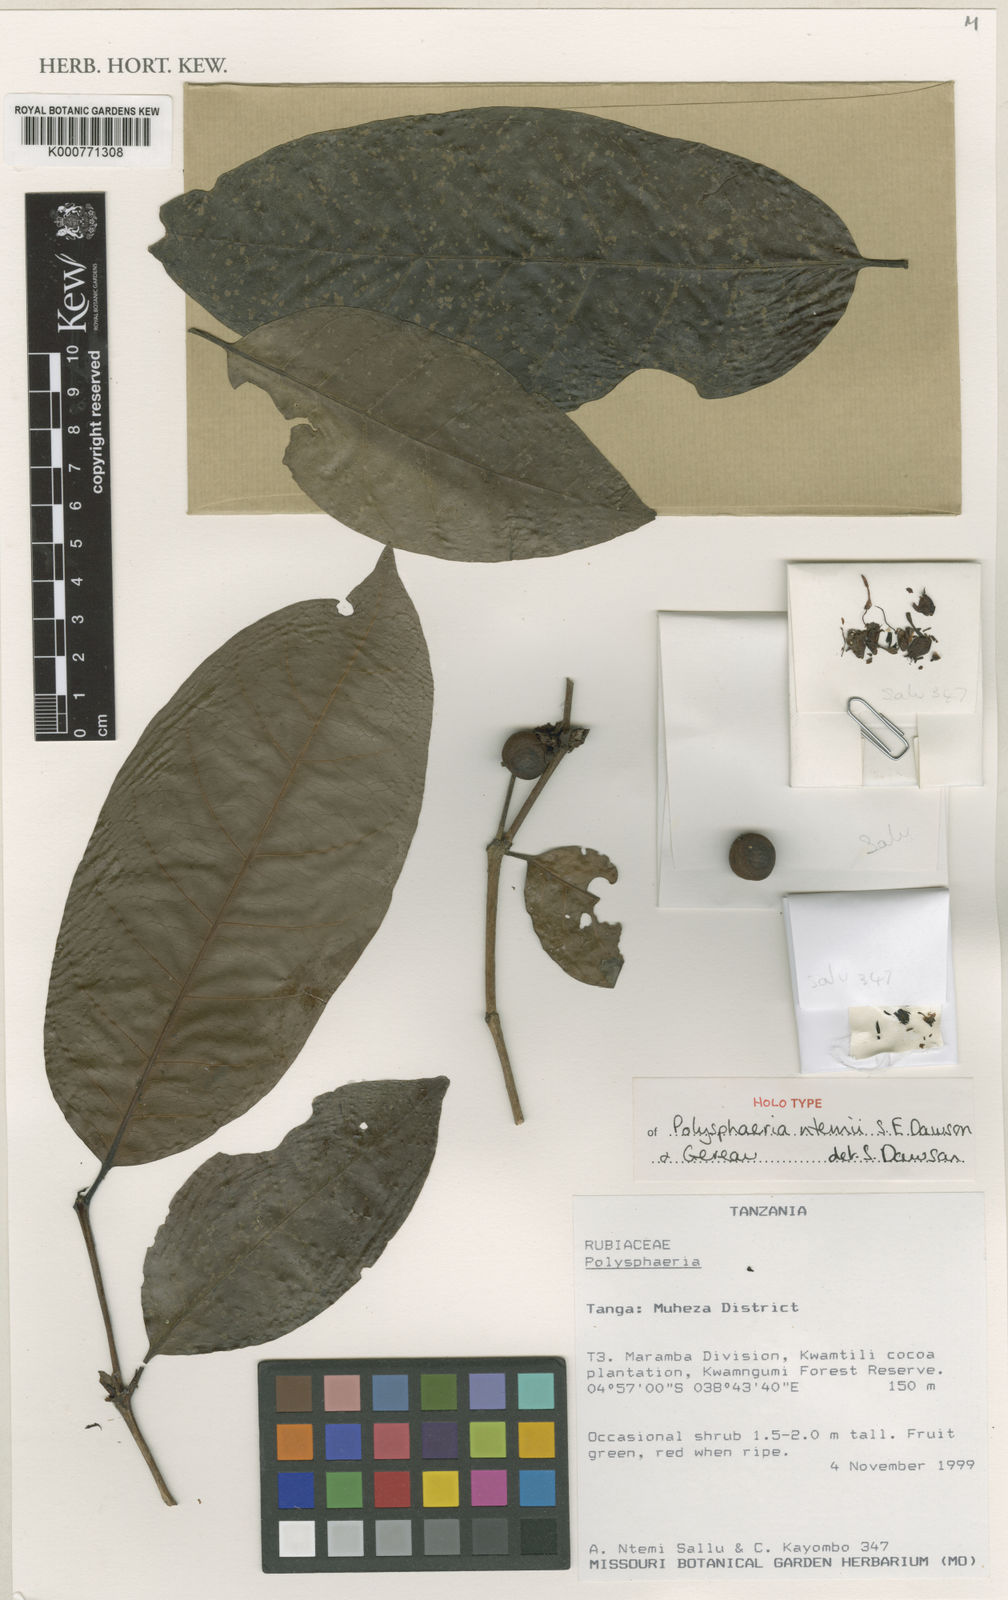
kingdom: Plantae
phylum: Tracheophyta
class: Magnoliopsida
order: Gentianales
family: Rubiaceae
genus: Polysphaeria
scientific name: Polysphaeria ntemii
